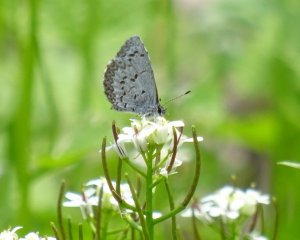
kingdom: Animalia
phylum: Arthropoda
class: Insecta
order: Lepidoptera
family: Lycaenidae
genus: Celastrina
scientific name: Celastrina lucia
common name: Northern Spring Azure
